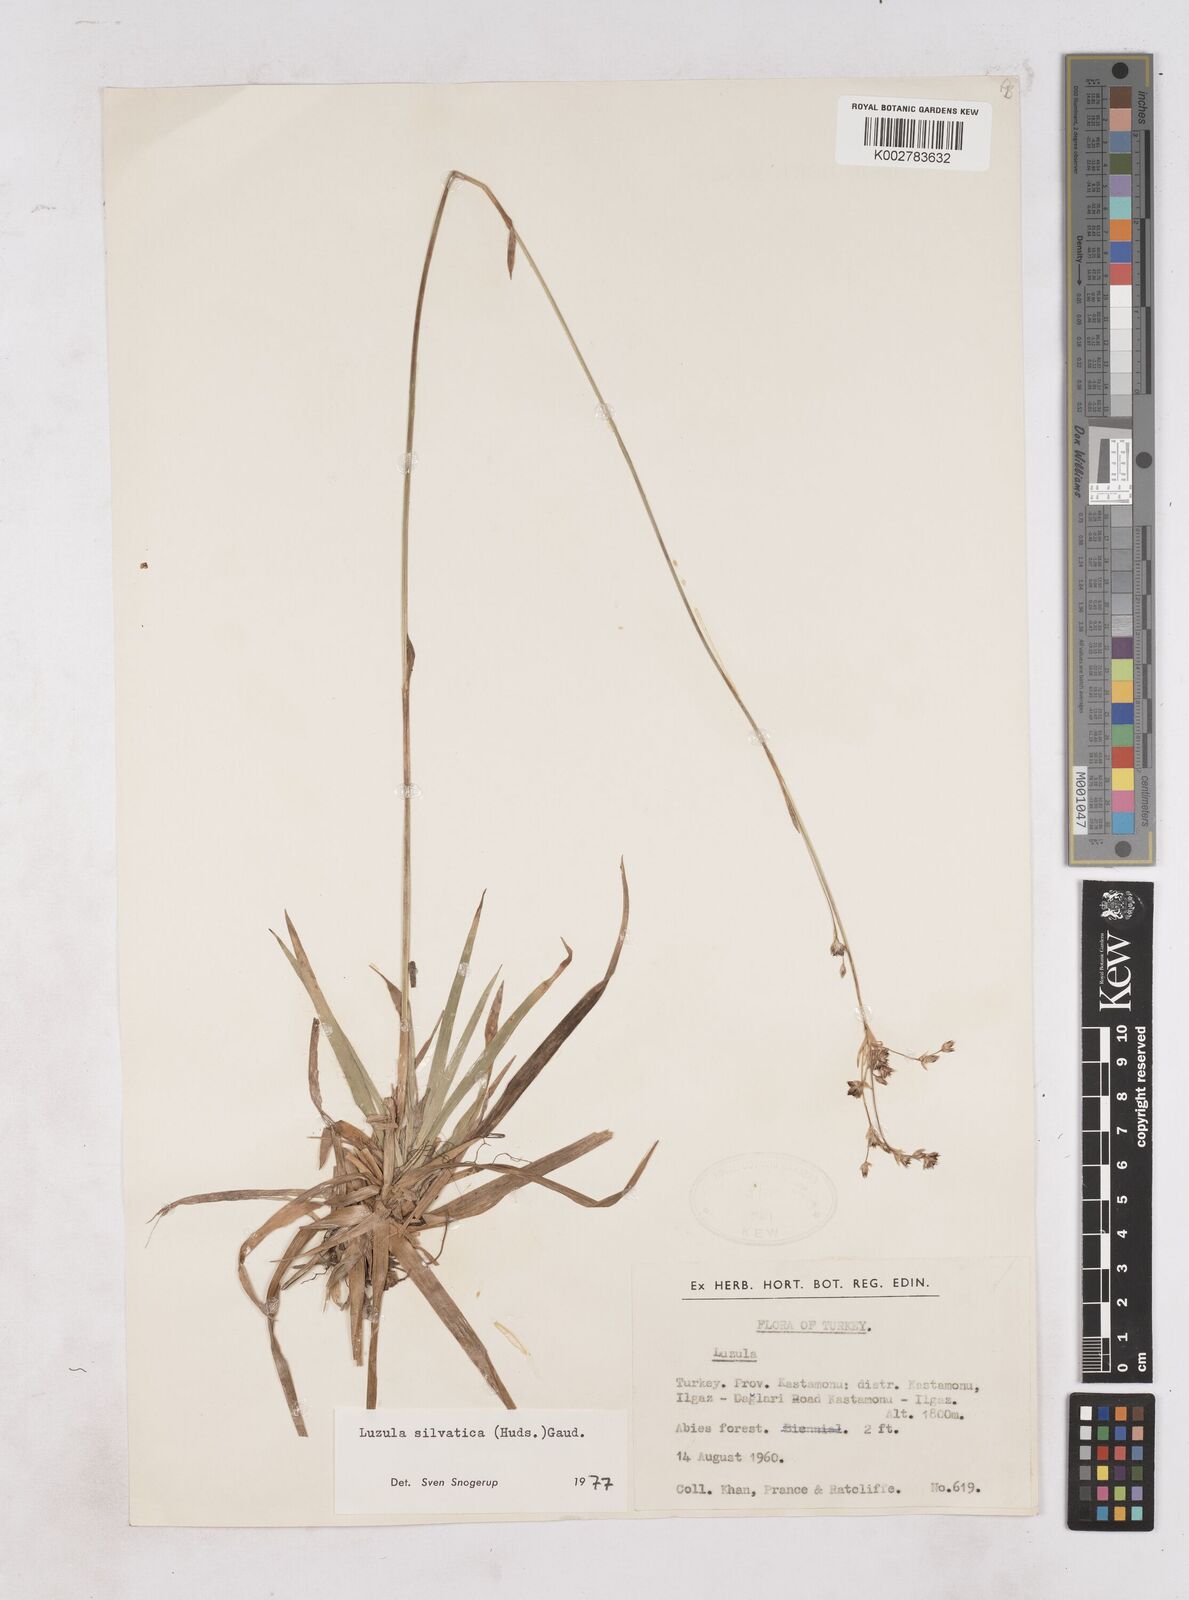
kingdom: Plantae
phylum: Tracheophyta
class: Liliopsida
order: Poales
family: Juncaceae
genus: Luzula
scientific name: Luzula
